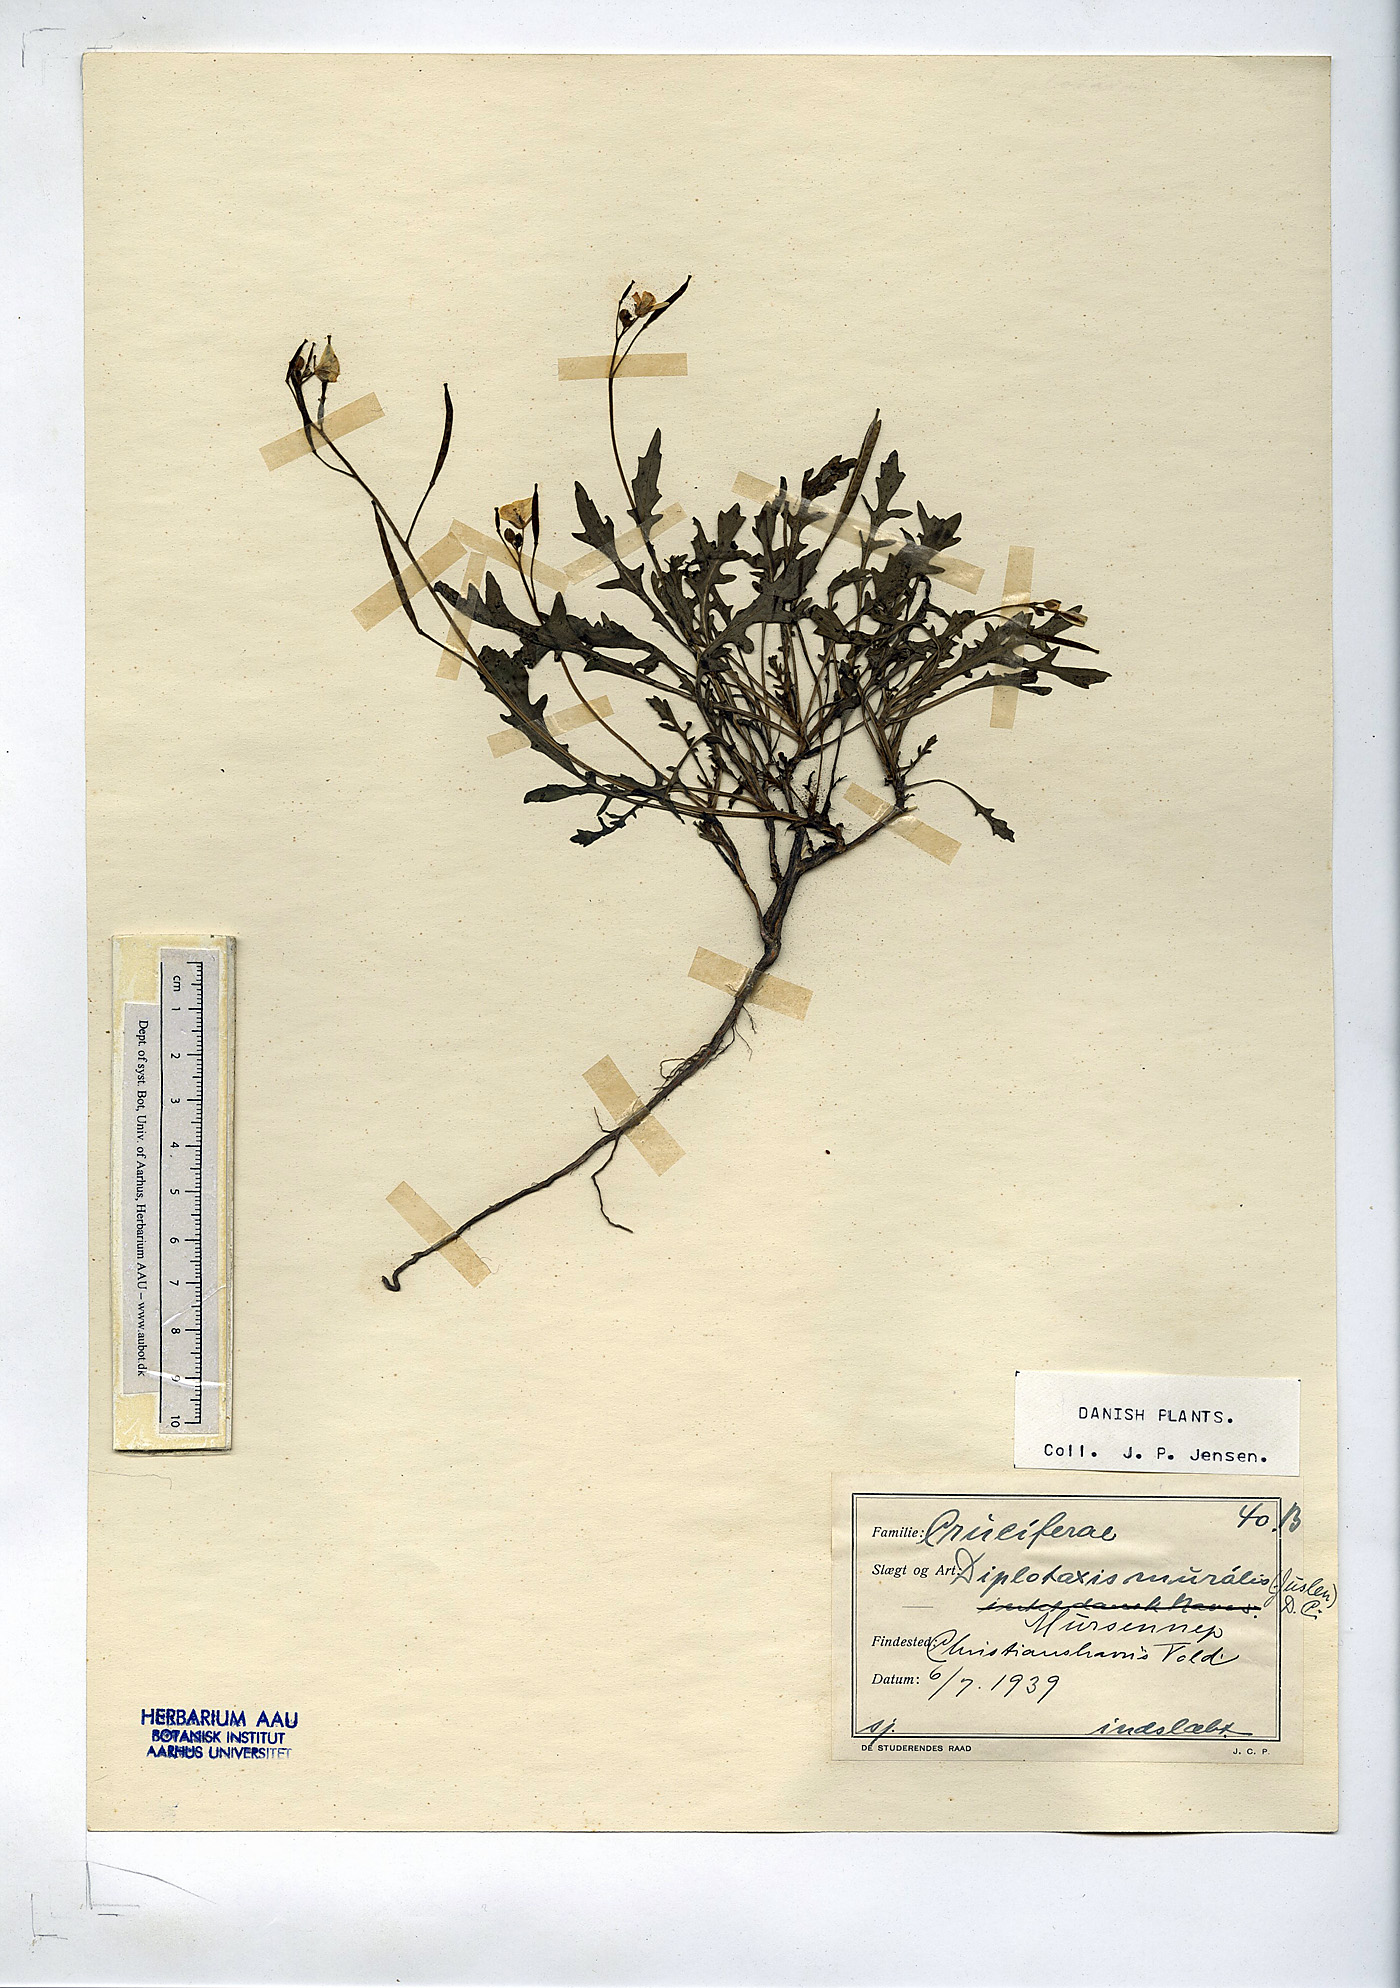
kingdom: Plantae
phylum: Tracheophyta
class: Magnoliopsida
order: Brassicales
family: Brassicaceae
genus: Diplotaxis
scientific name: Diplotaxis muralis
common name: Annual wall-rocket
